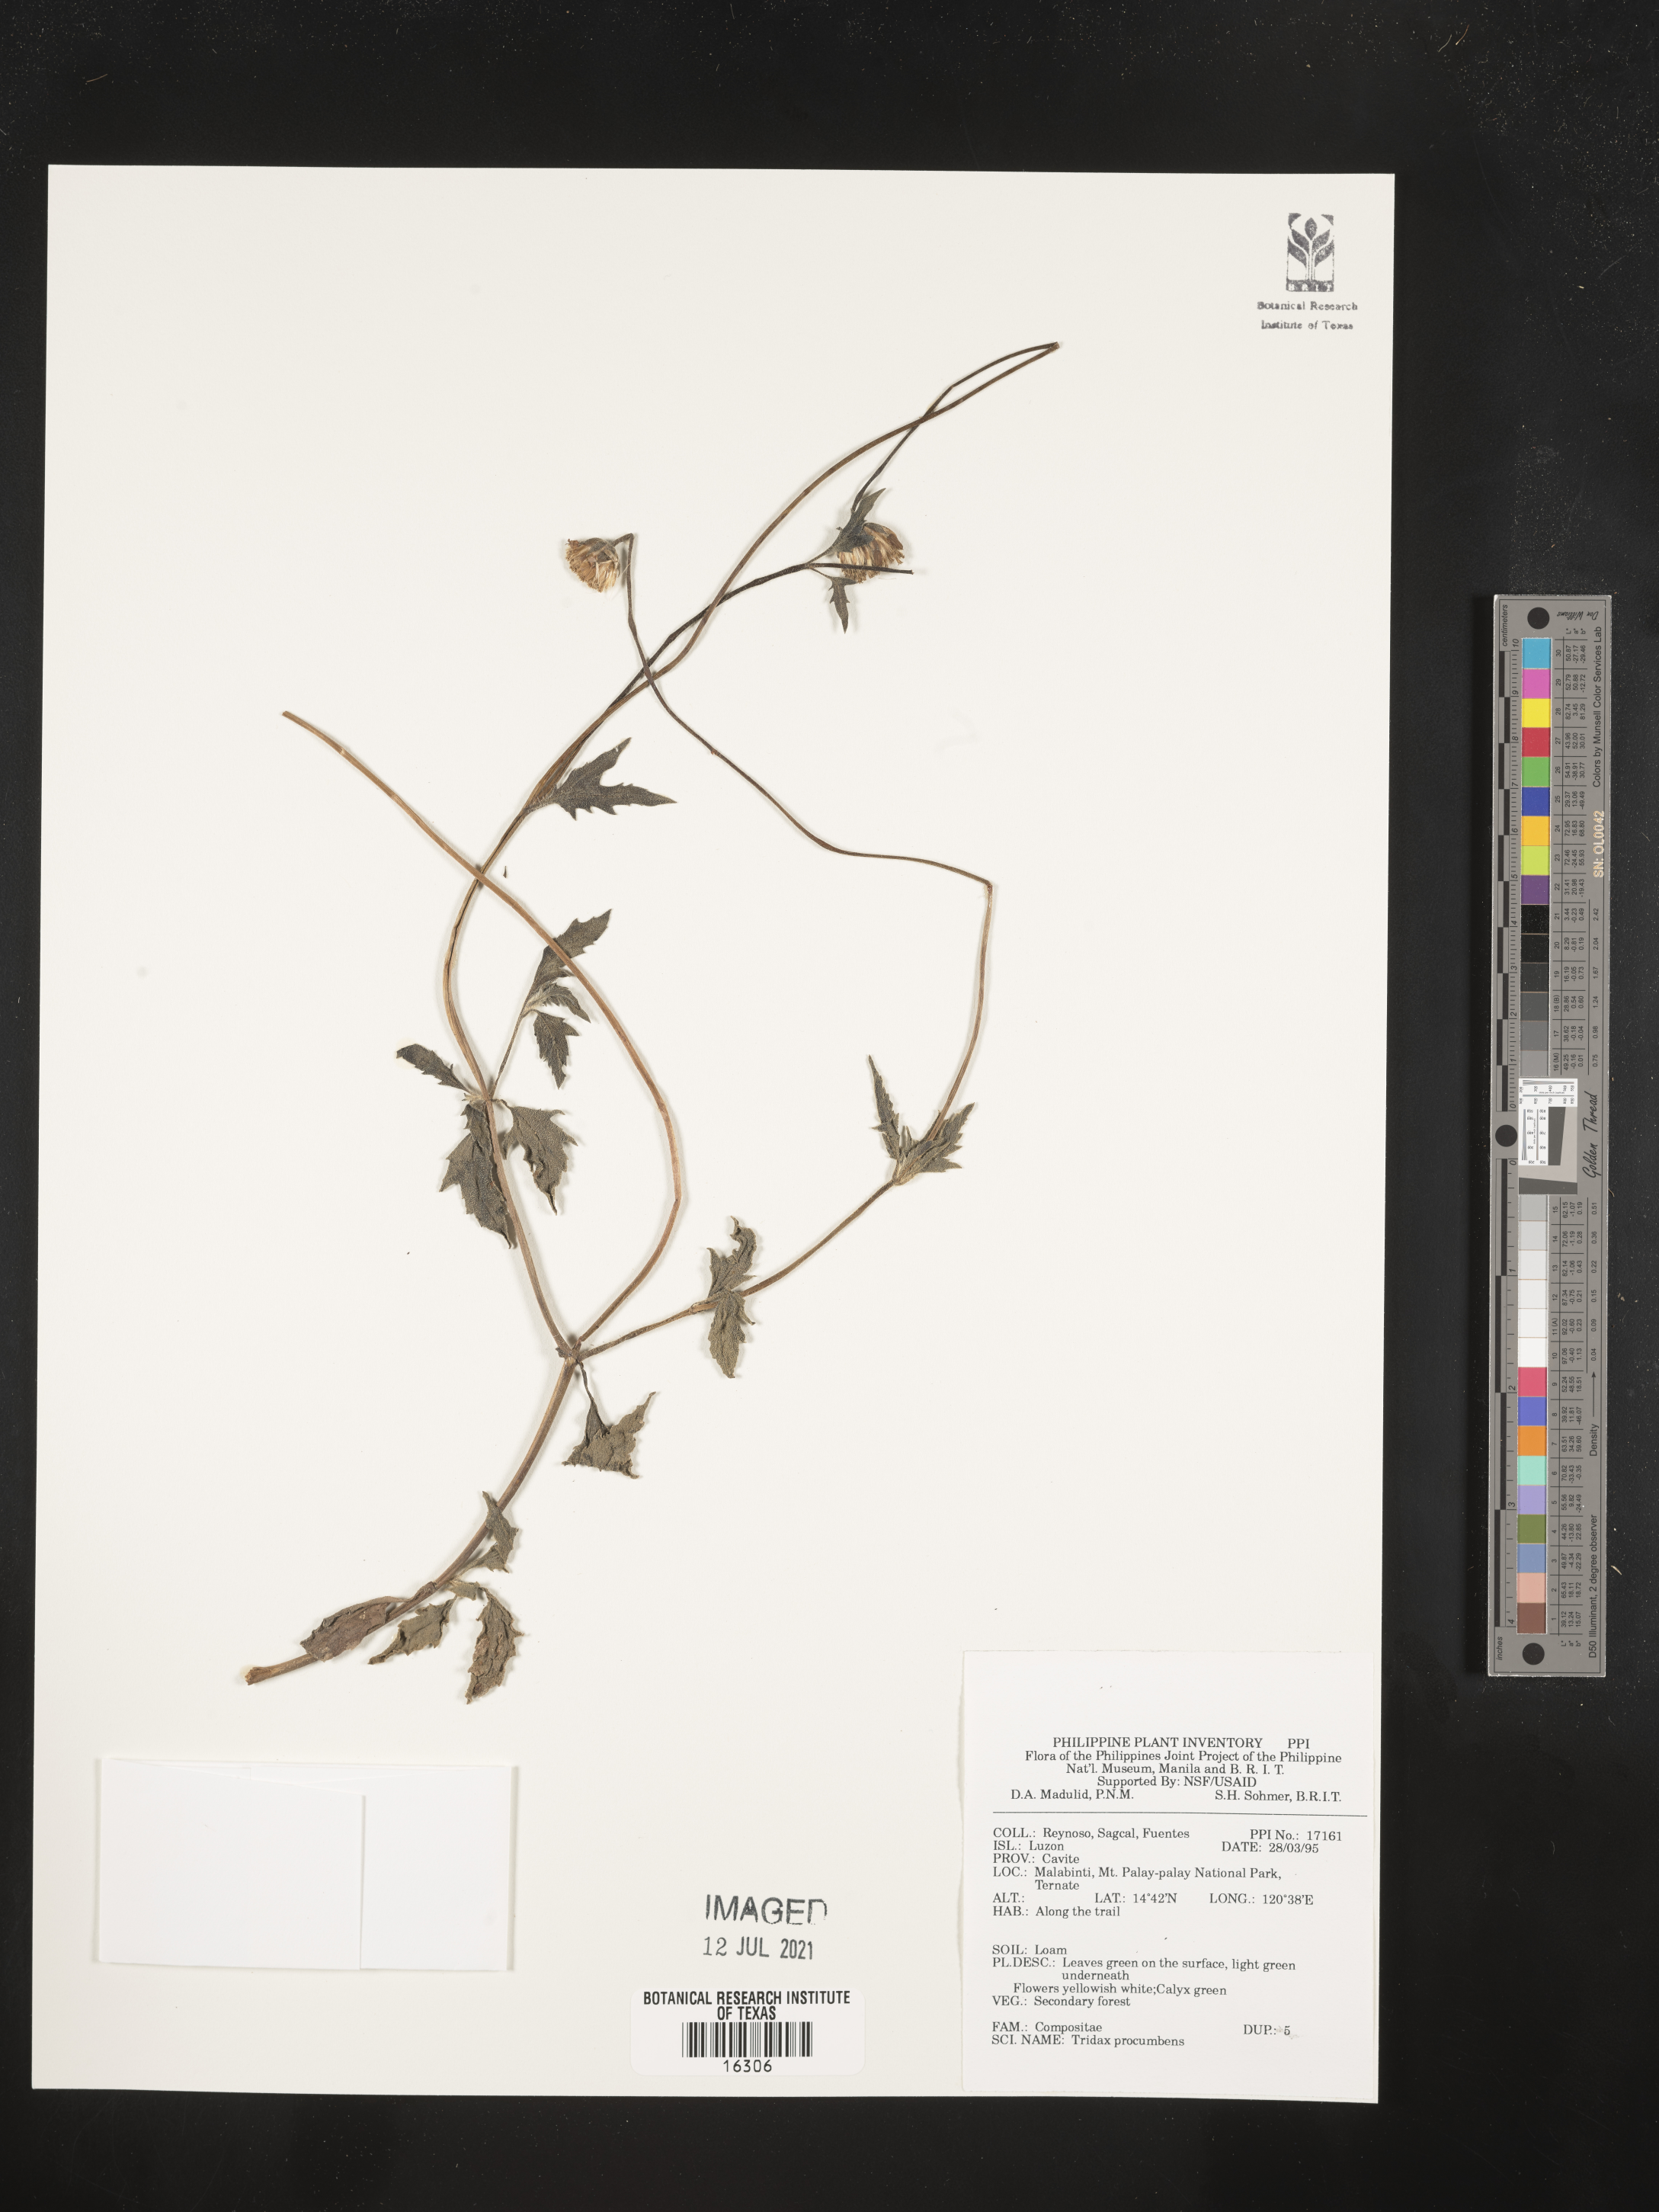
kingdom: Plantae
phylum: Tracheophyta
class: Magnoliopsida
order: Asterales
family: Asteraceae
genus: Tridax
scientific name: Tridax procumbens
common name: Coatbuttons
